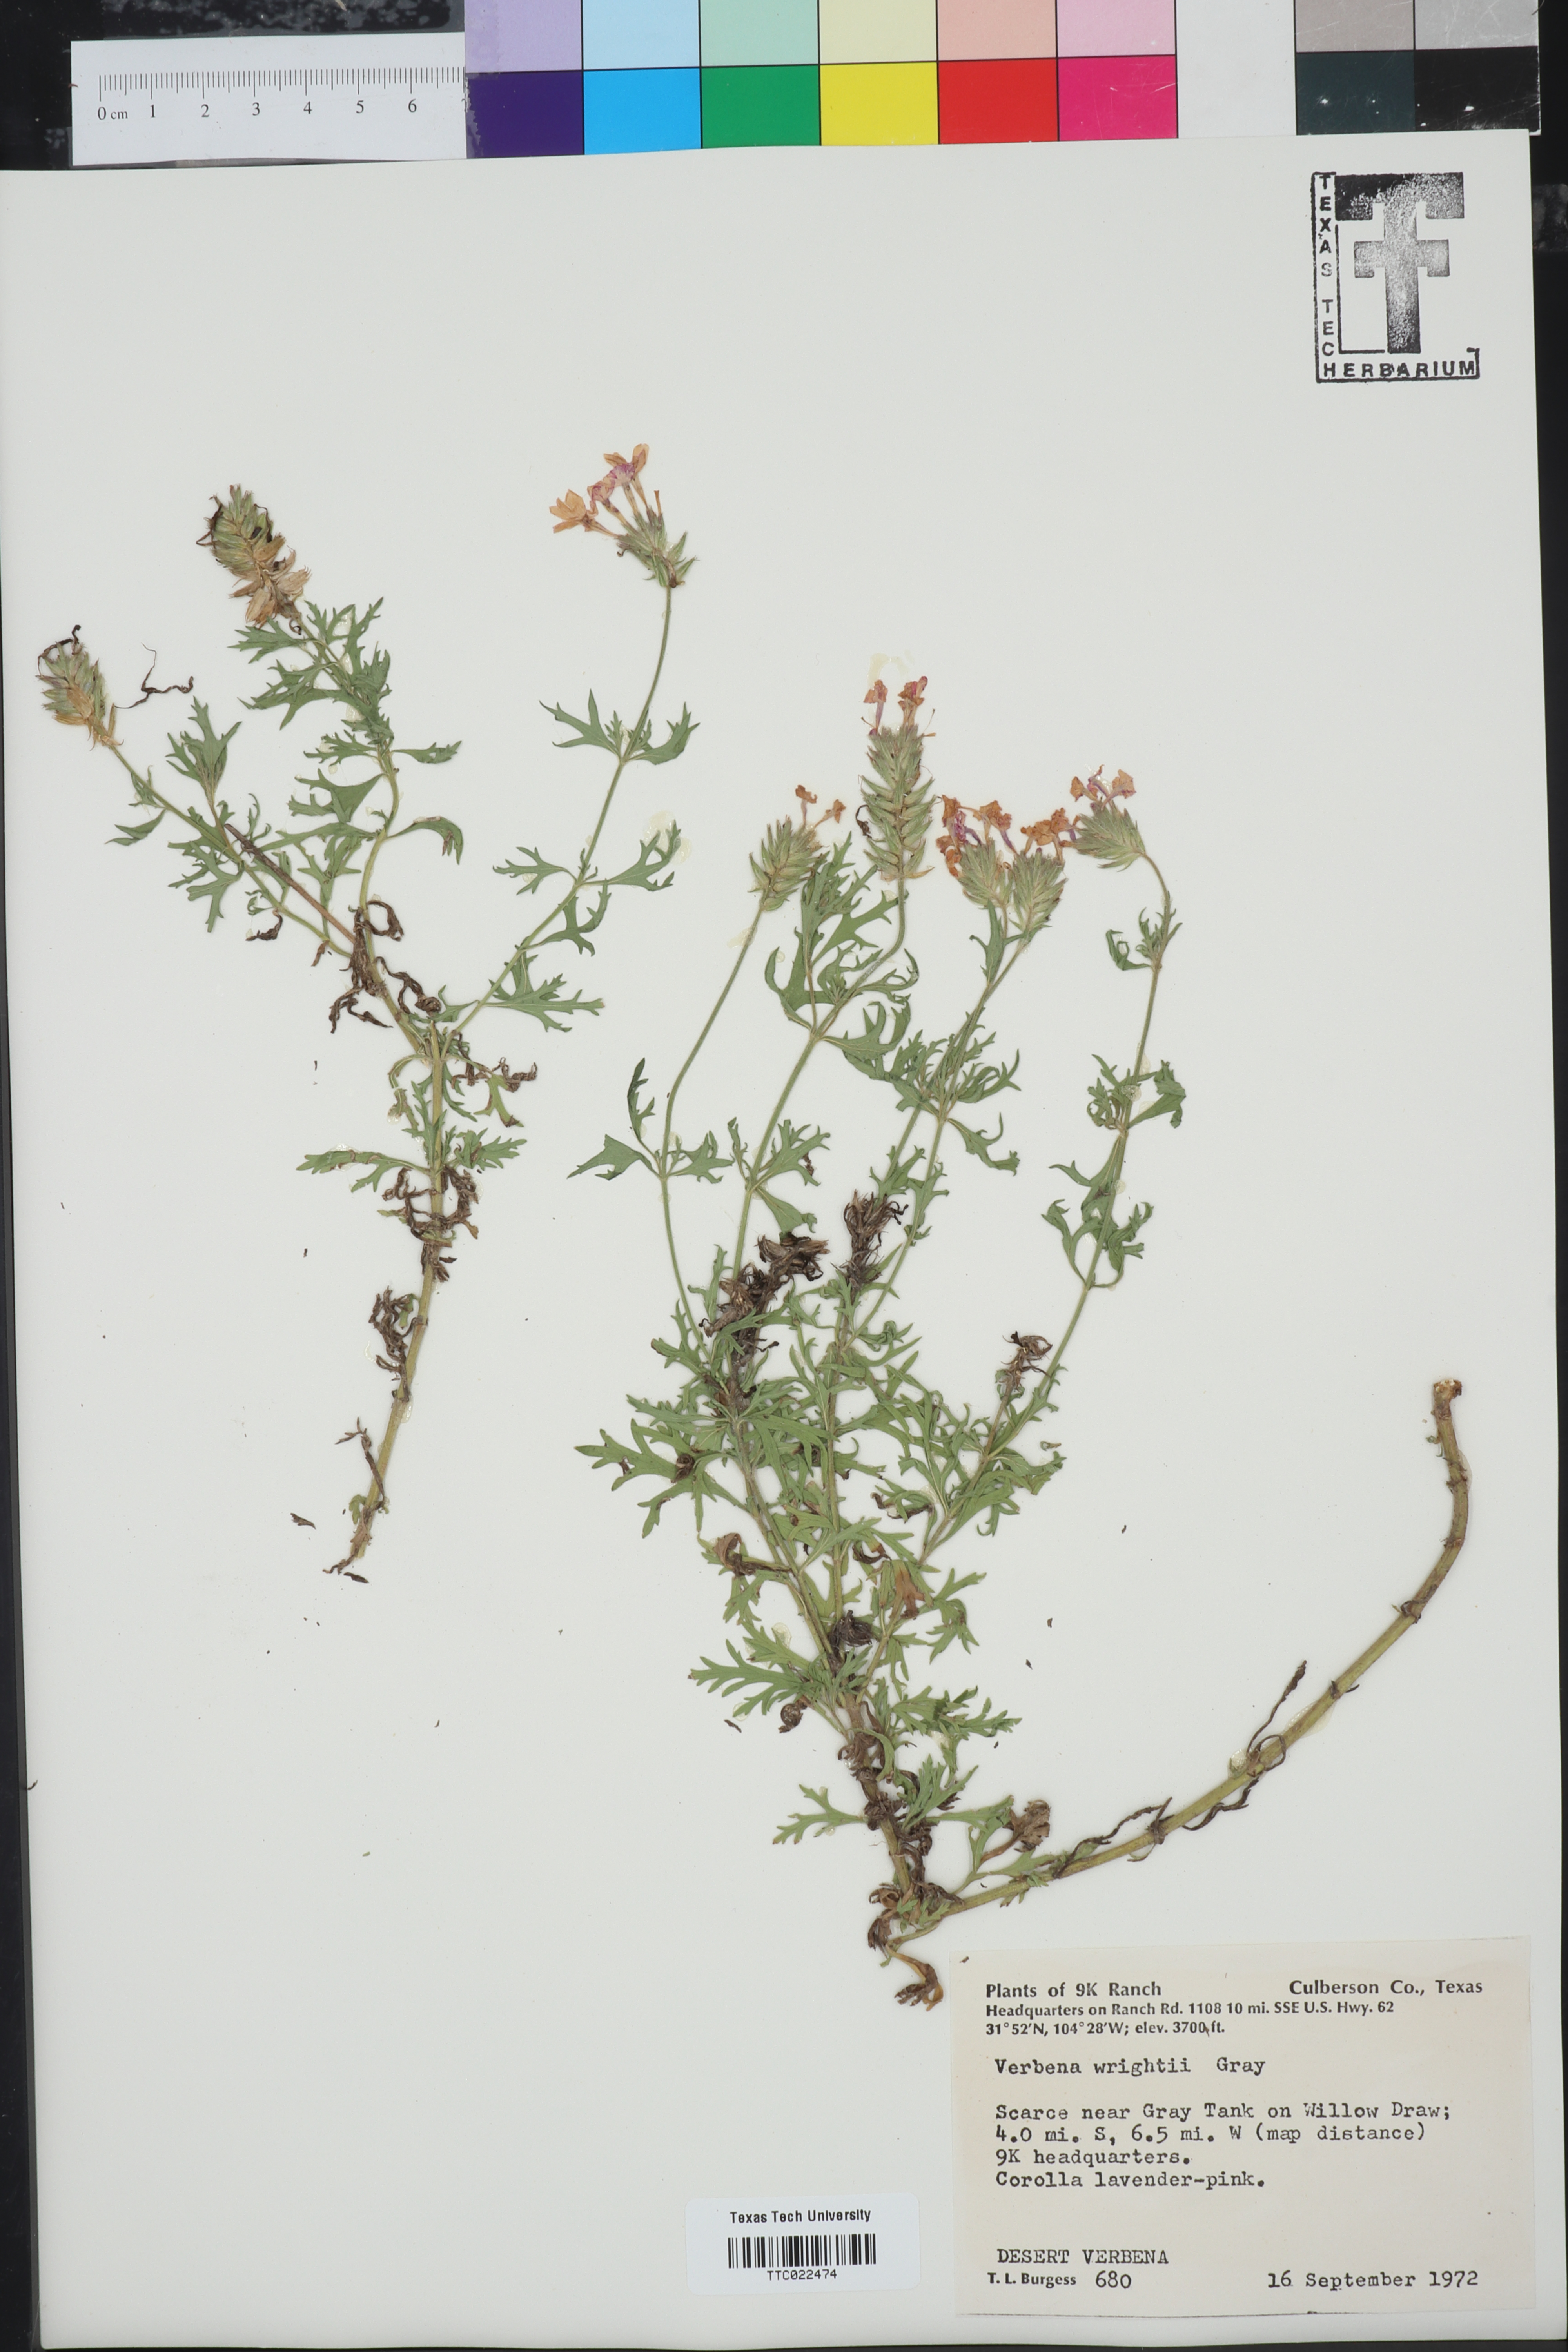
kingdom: Plantae
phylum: Tracheophyta
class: Magnoliopsida
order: Lamiales
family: Verbenaceae
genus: Verbena
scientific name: Verbena bipinnatifida
